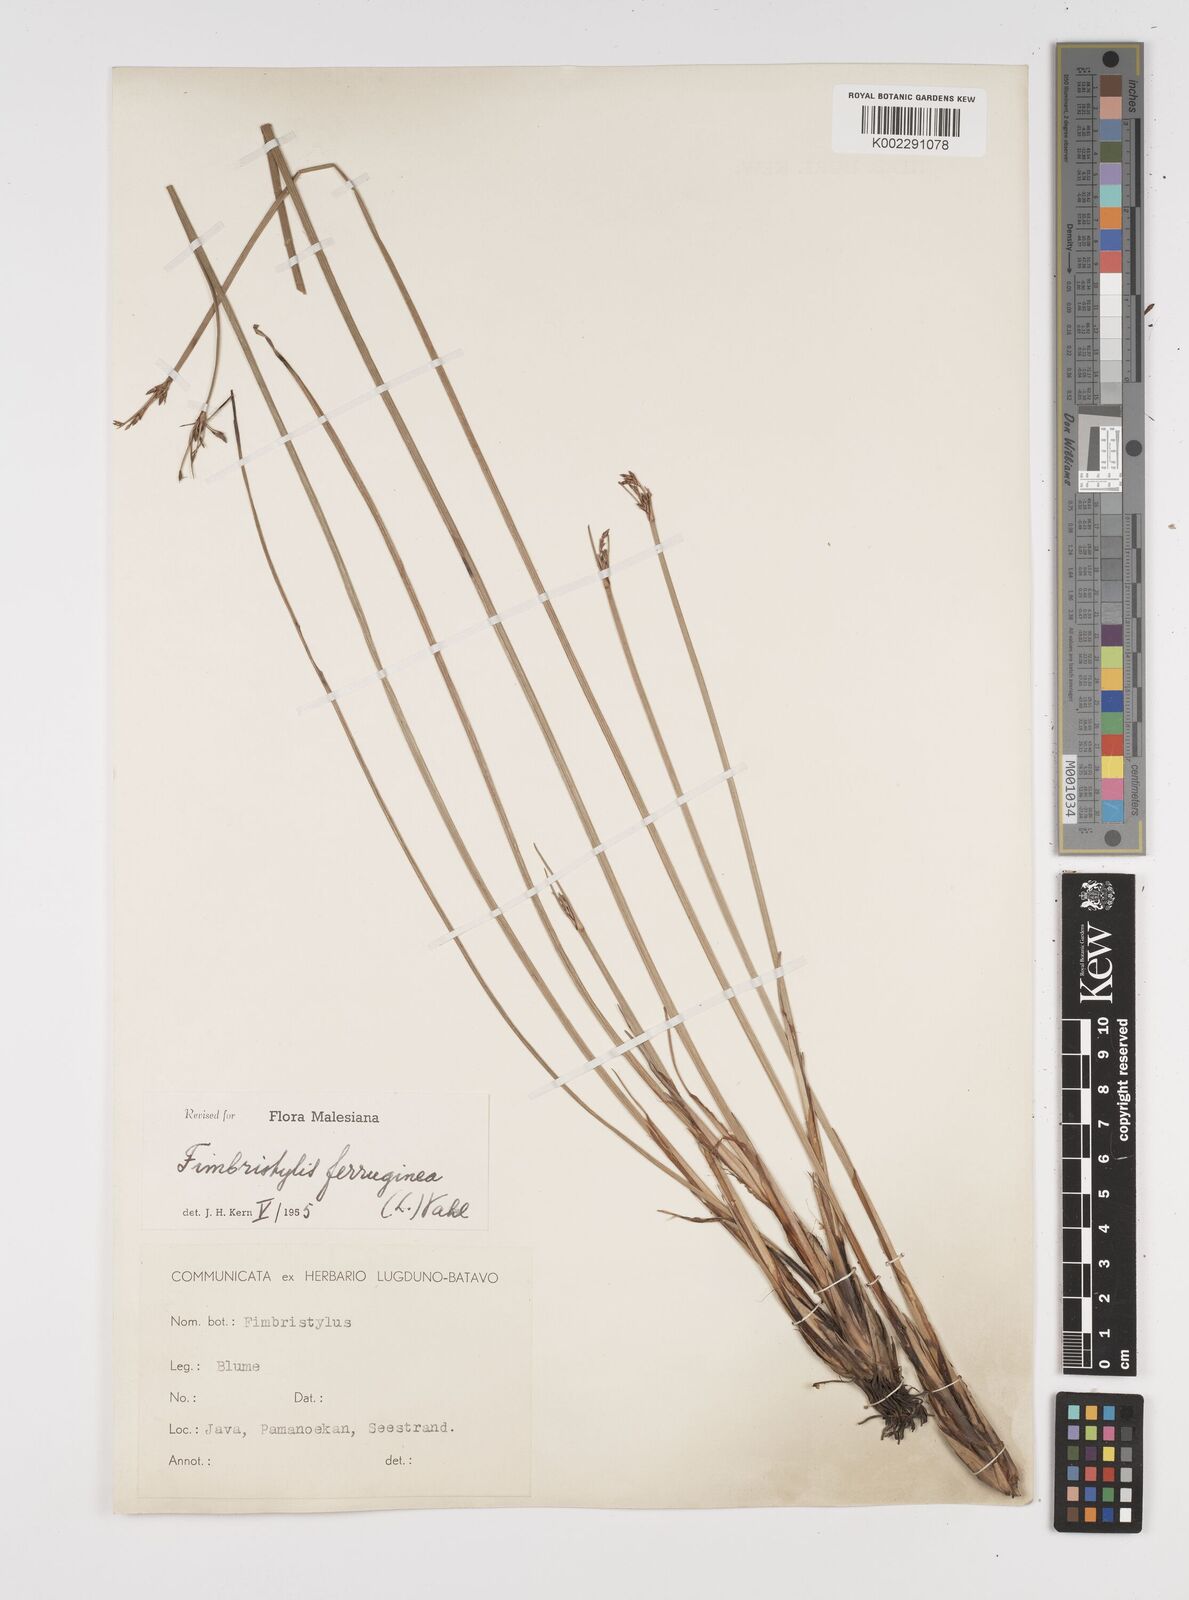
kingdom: Plantae
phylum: Tracheophyta
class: Liliopsida
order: Poales
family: Cyperaceae
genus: Fimbristylis
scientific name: Fimbristylis ferruginea
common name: West indian fimbry
